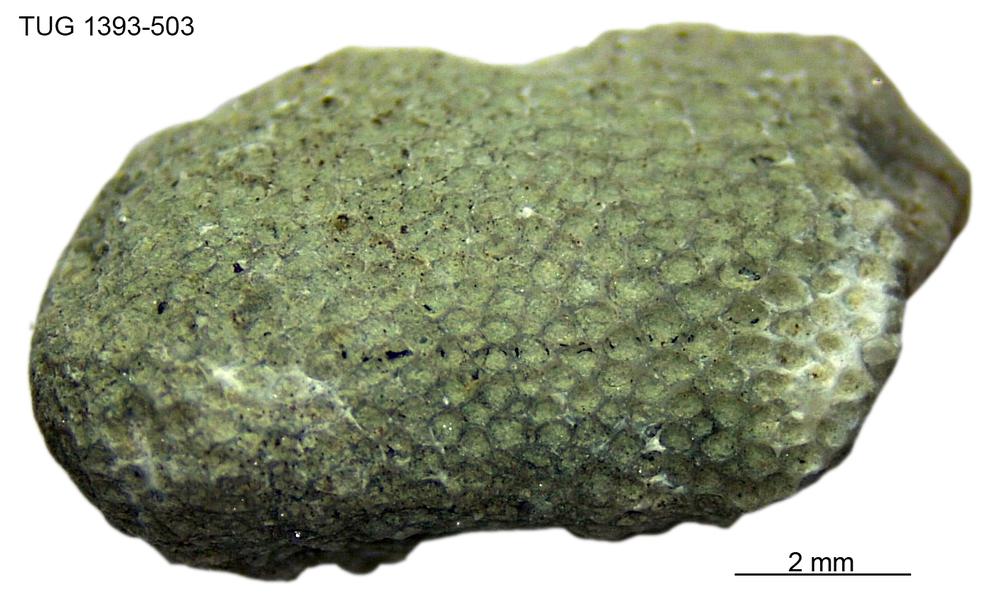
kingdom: Animalia
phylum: Bryozoa
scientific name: Bryozoa
